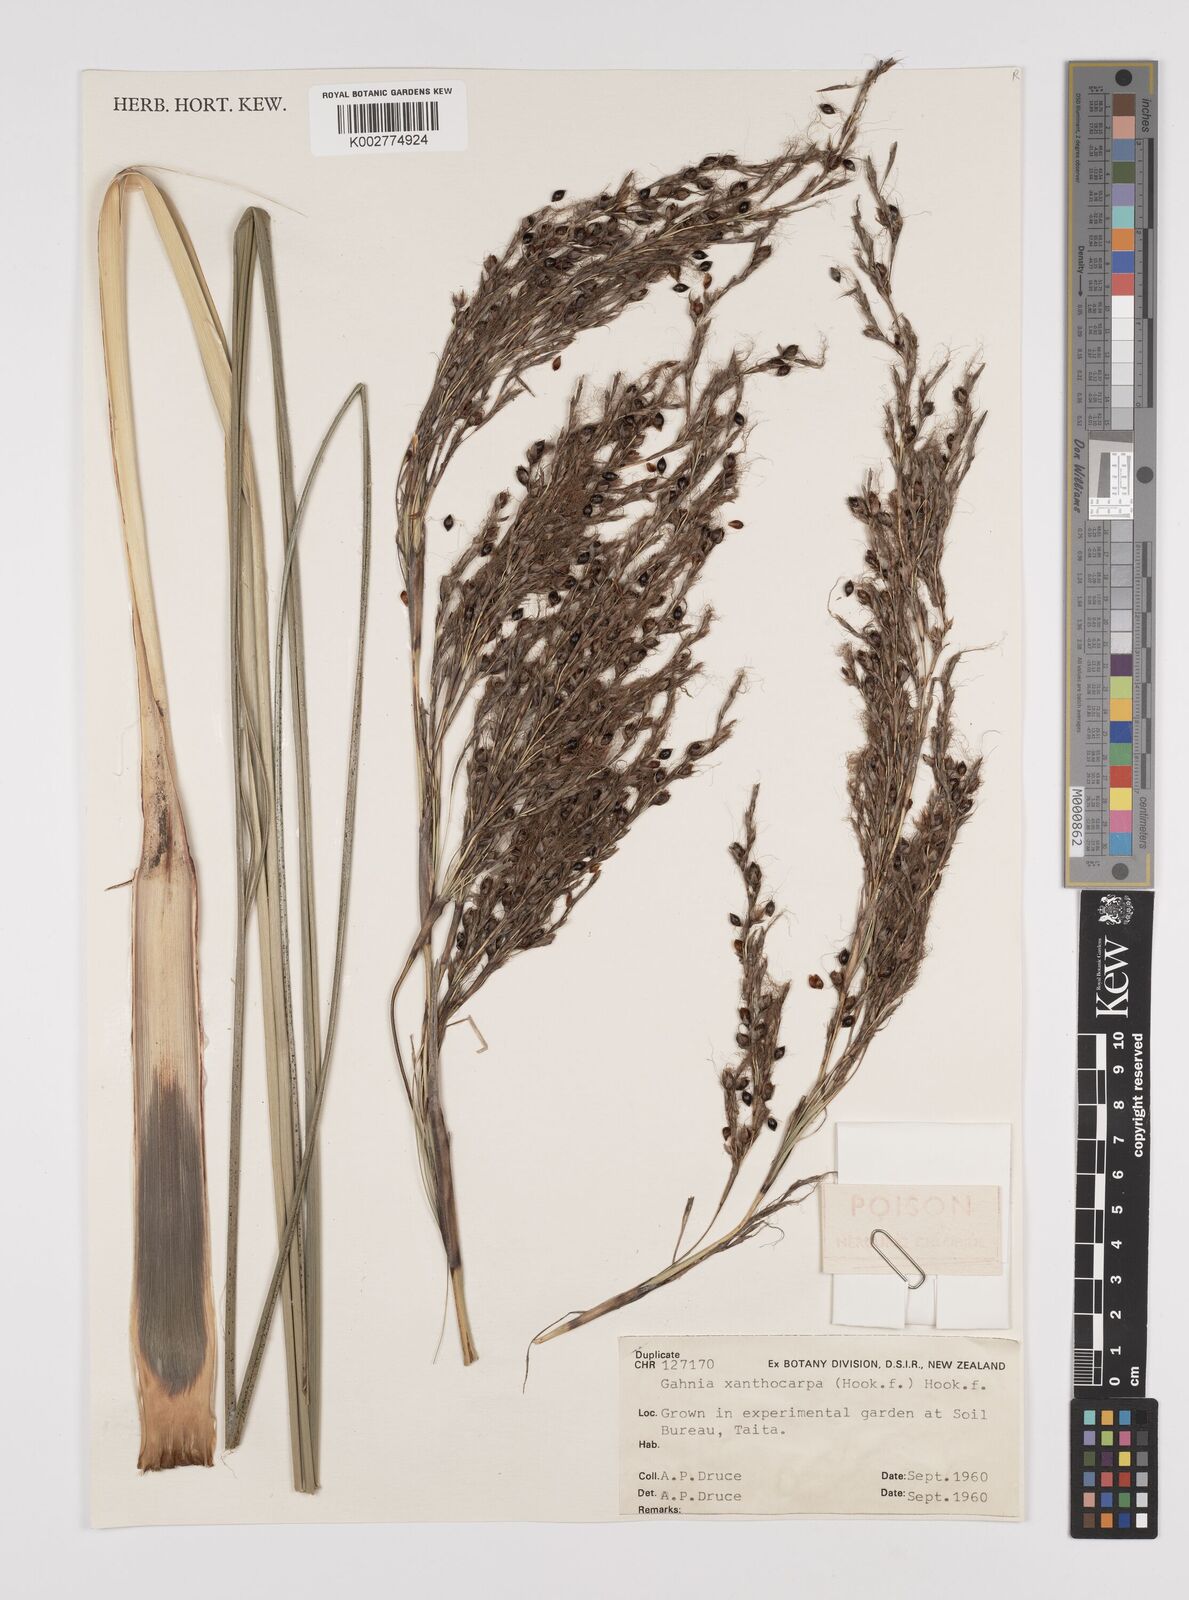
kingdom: Plantae
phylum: Tracheophyta
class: Liliopsida
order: Poales
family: Cyperaceae
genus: Gahnia
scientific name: Gahnia xanthocarpa
